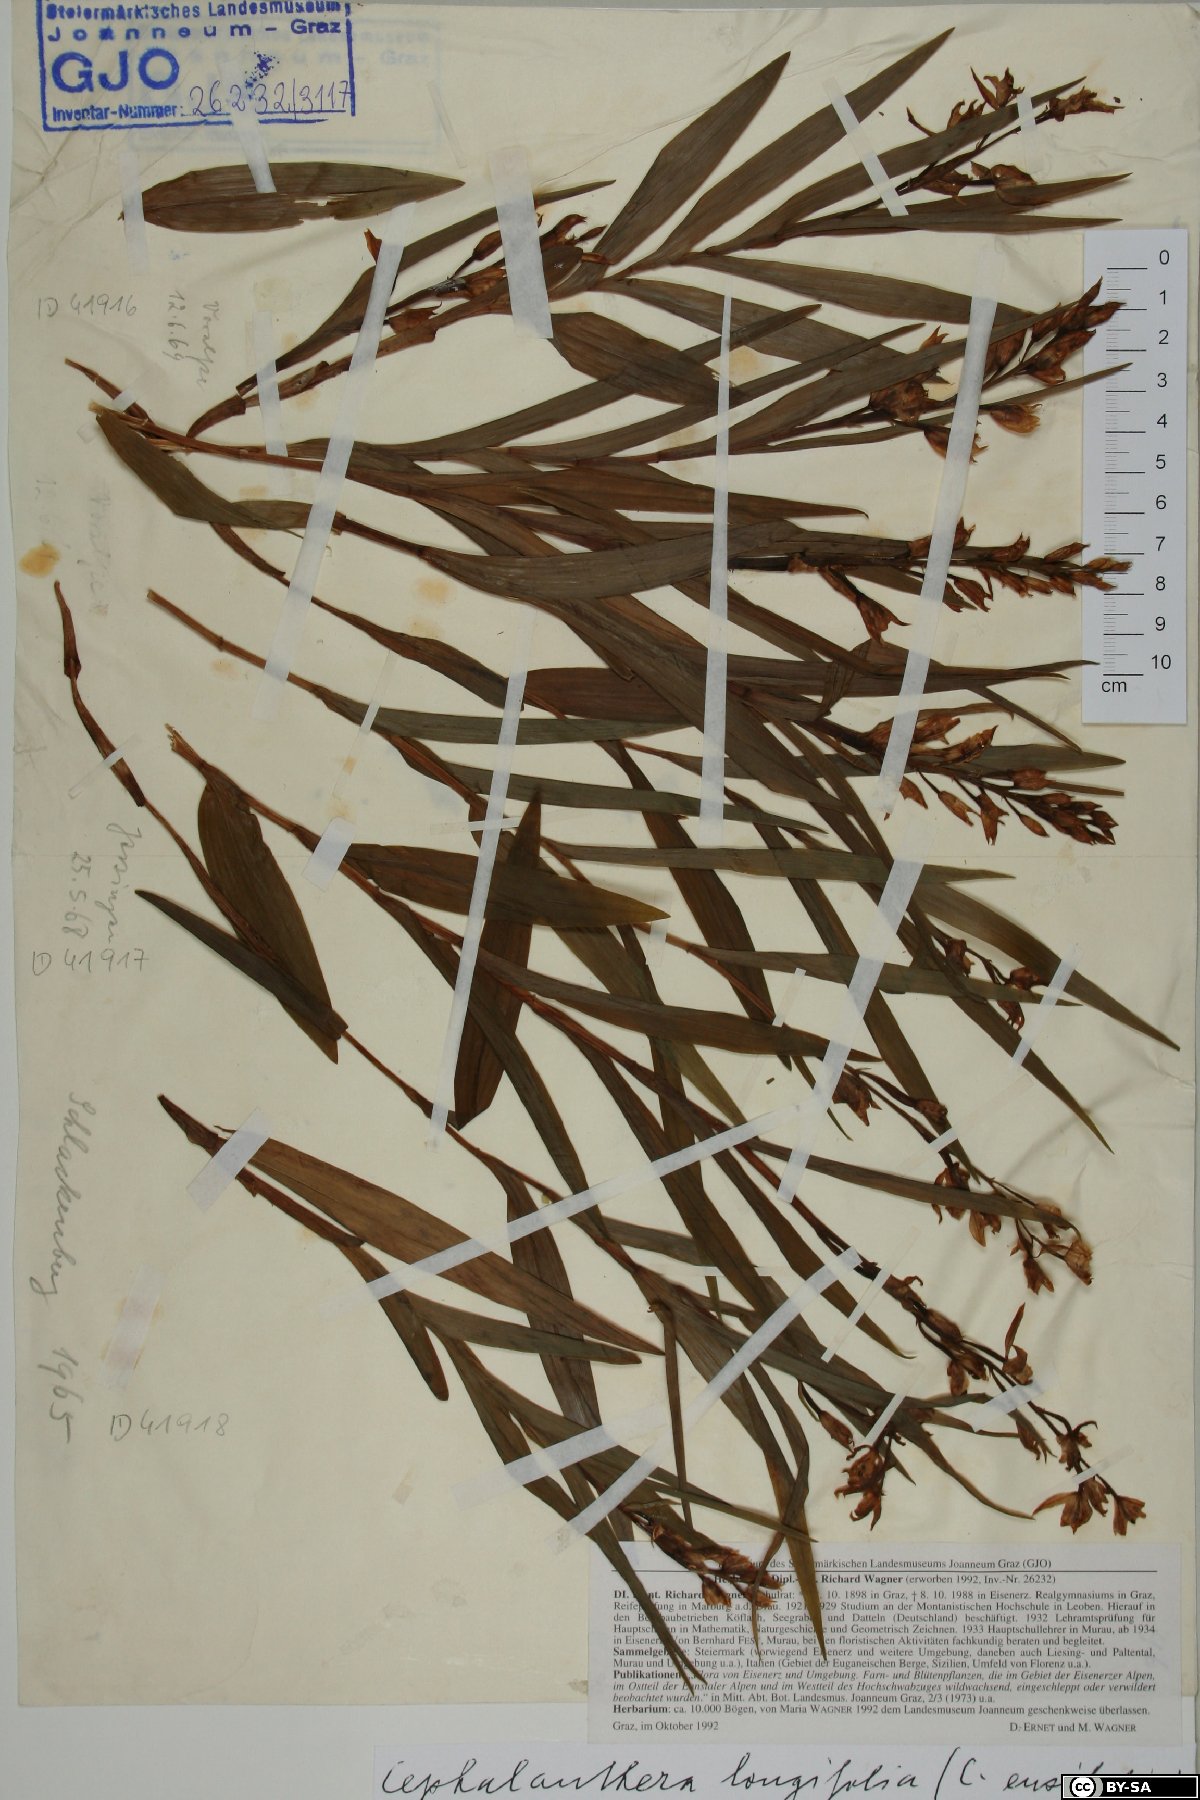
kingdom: Plantae
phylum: Tracheophyta
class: Liliopsida
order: Asparagales
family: Orchidaceae
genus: Cephalanthera
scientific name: Cephalanthera longifolia
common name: Narrow-leaved helleborine
